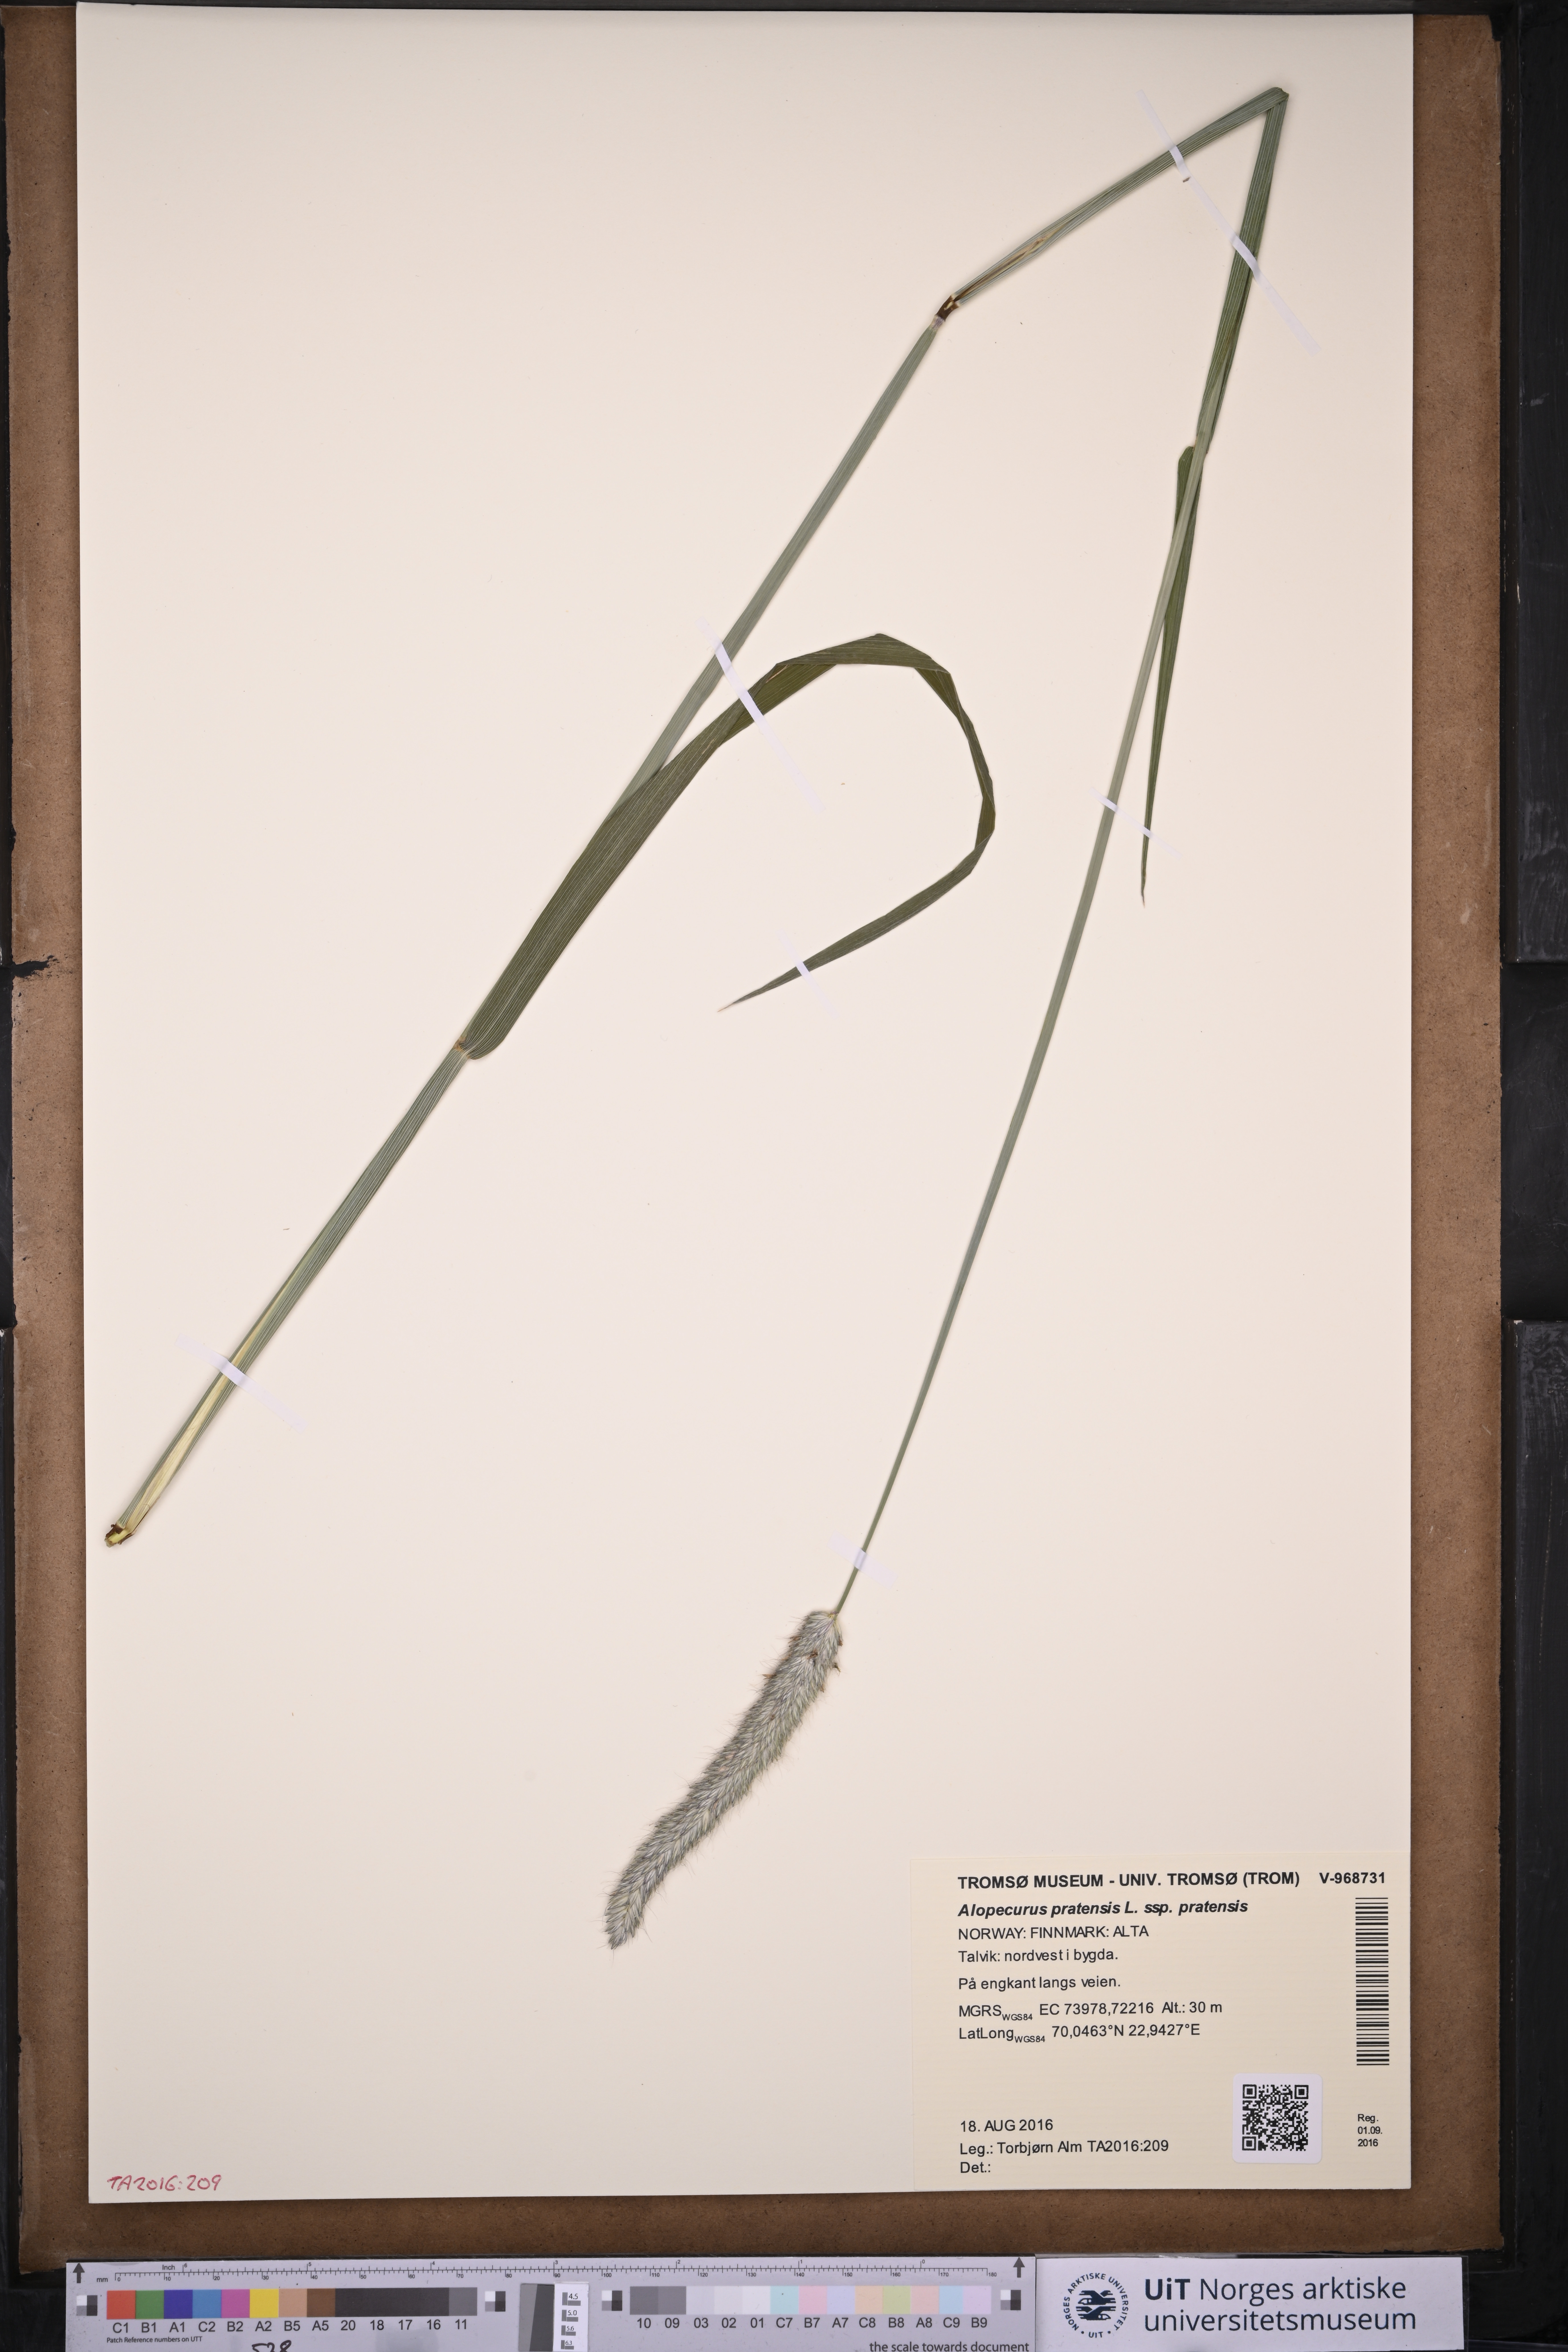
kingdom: Plantae
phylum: Tracheophyta
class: Liliopsida
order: Poales
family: Poaceae
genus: Alopecurus
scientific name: Alopecurus pratensis
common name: Meadow foxtail
